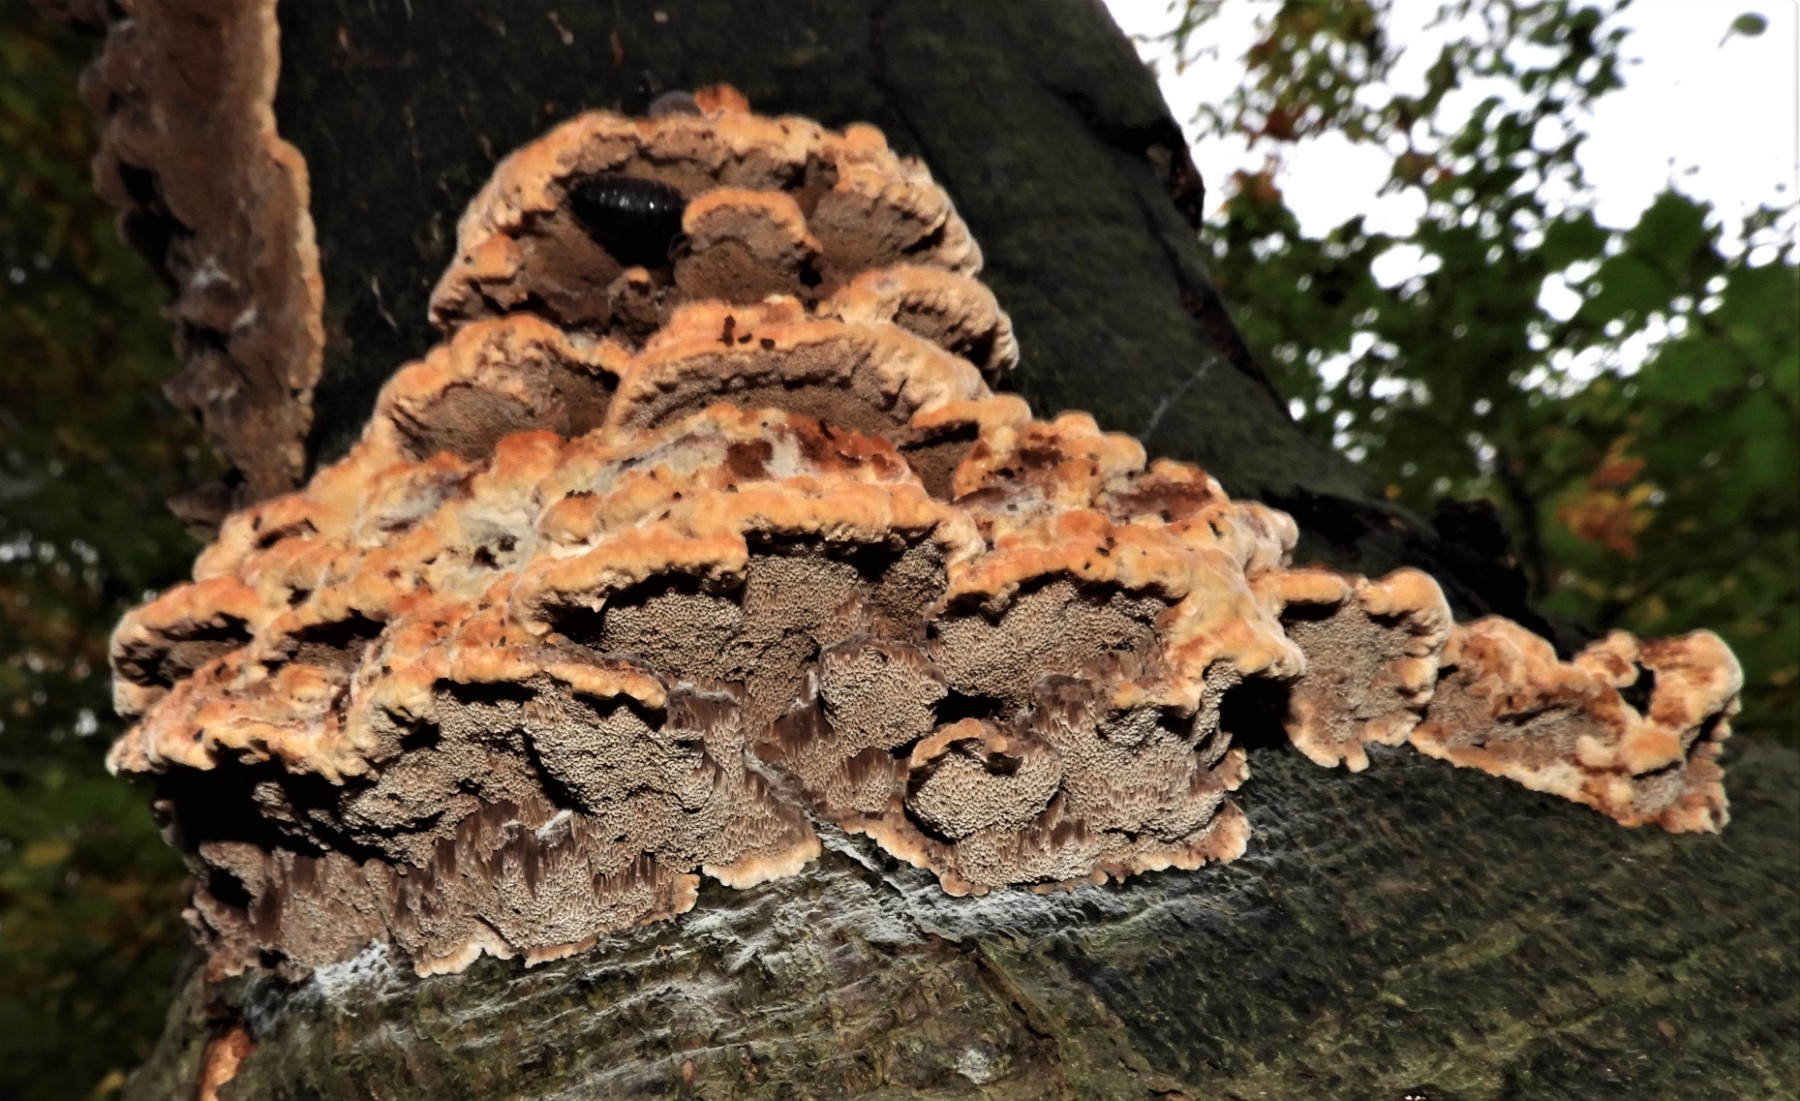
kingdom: Fungi
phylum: Basidiomycota
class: Agaricomycetes
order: Hymenochaetales
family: Hymenochaetaceae
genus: Mensularia
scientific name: Mensularia nodulosa
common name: bøge-spejlporesvamp
